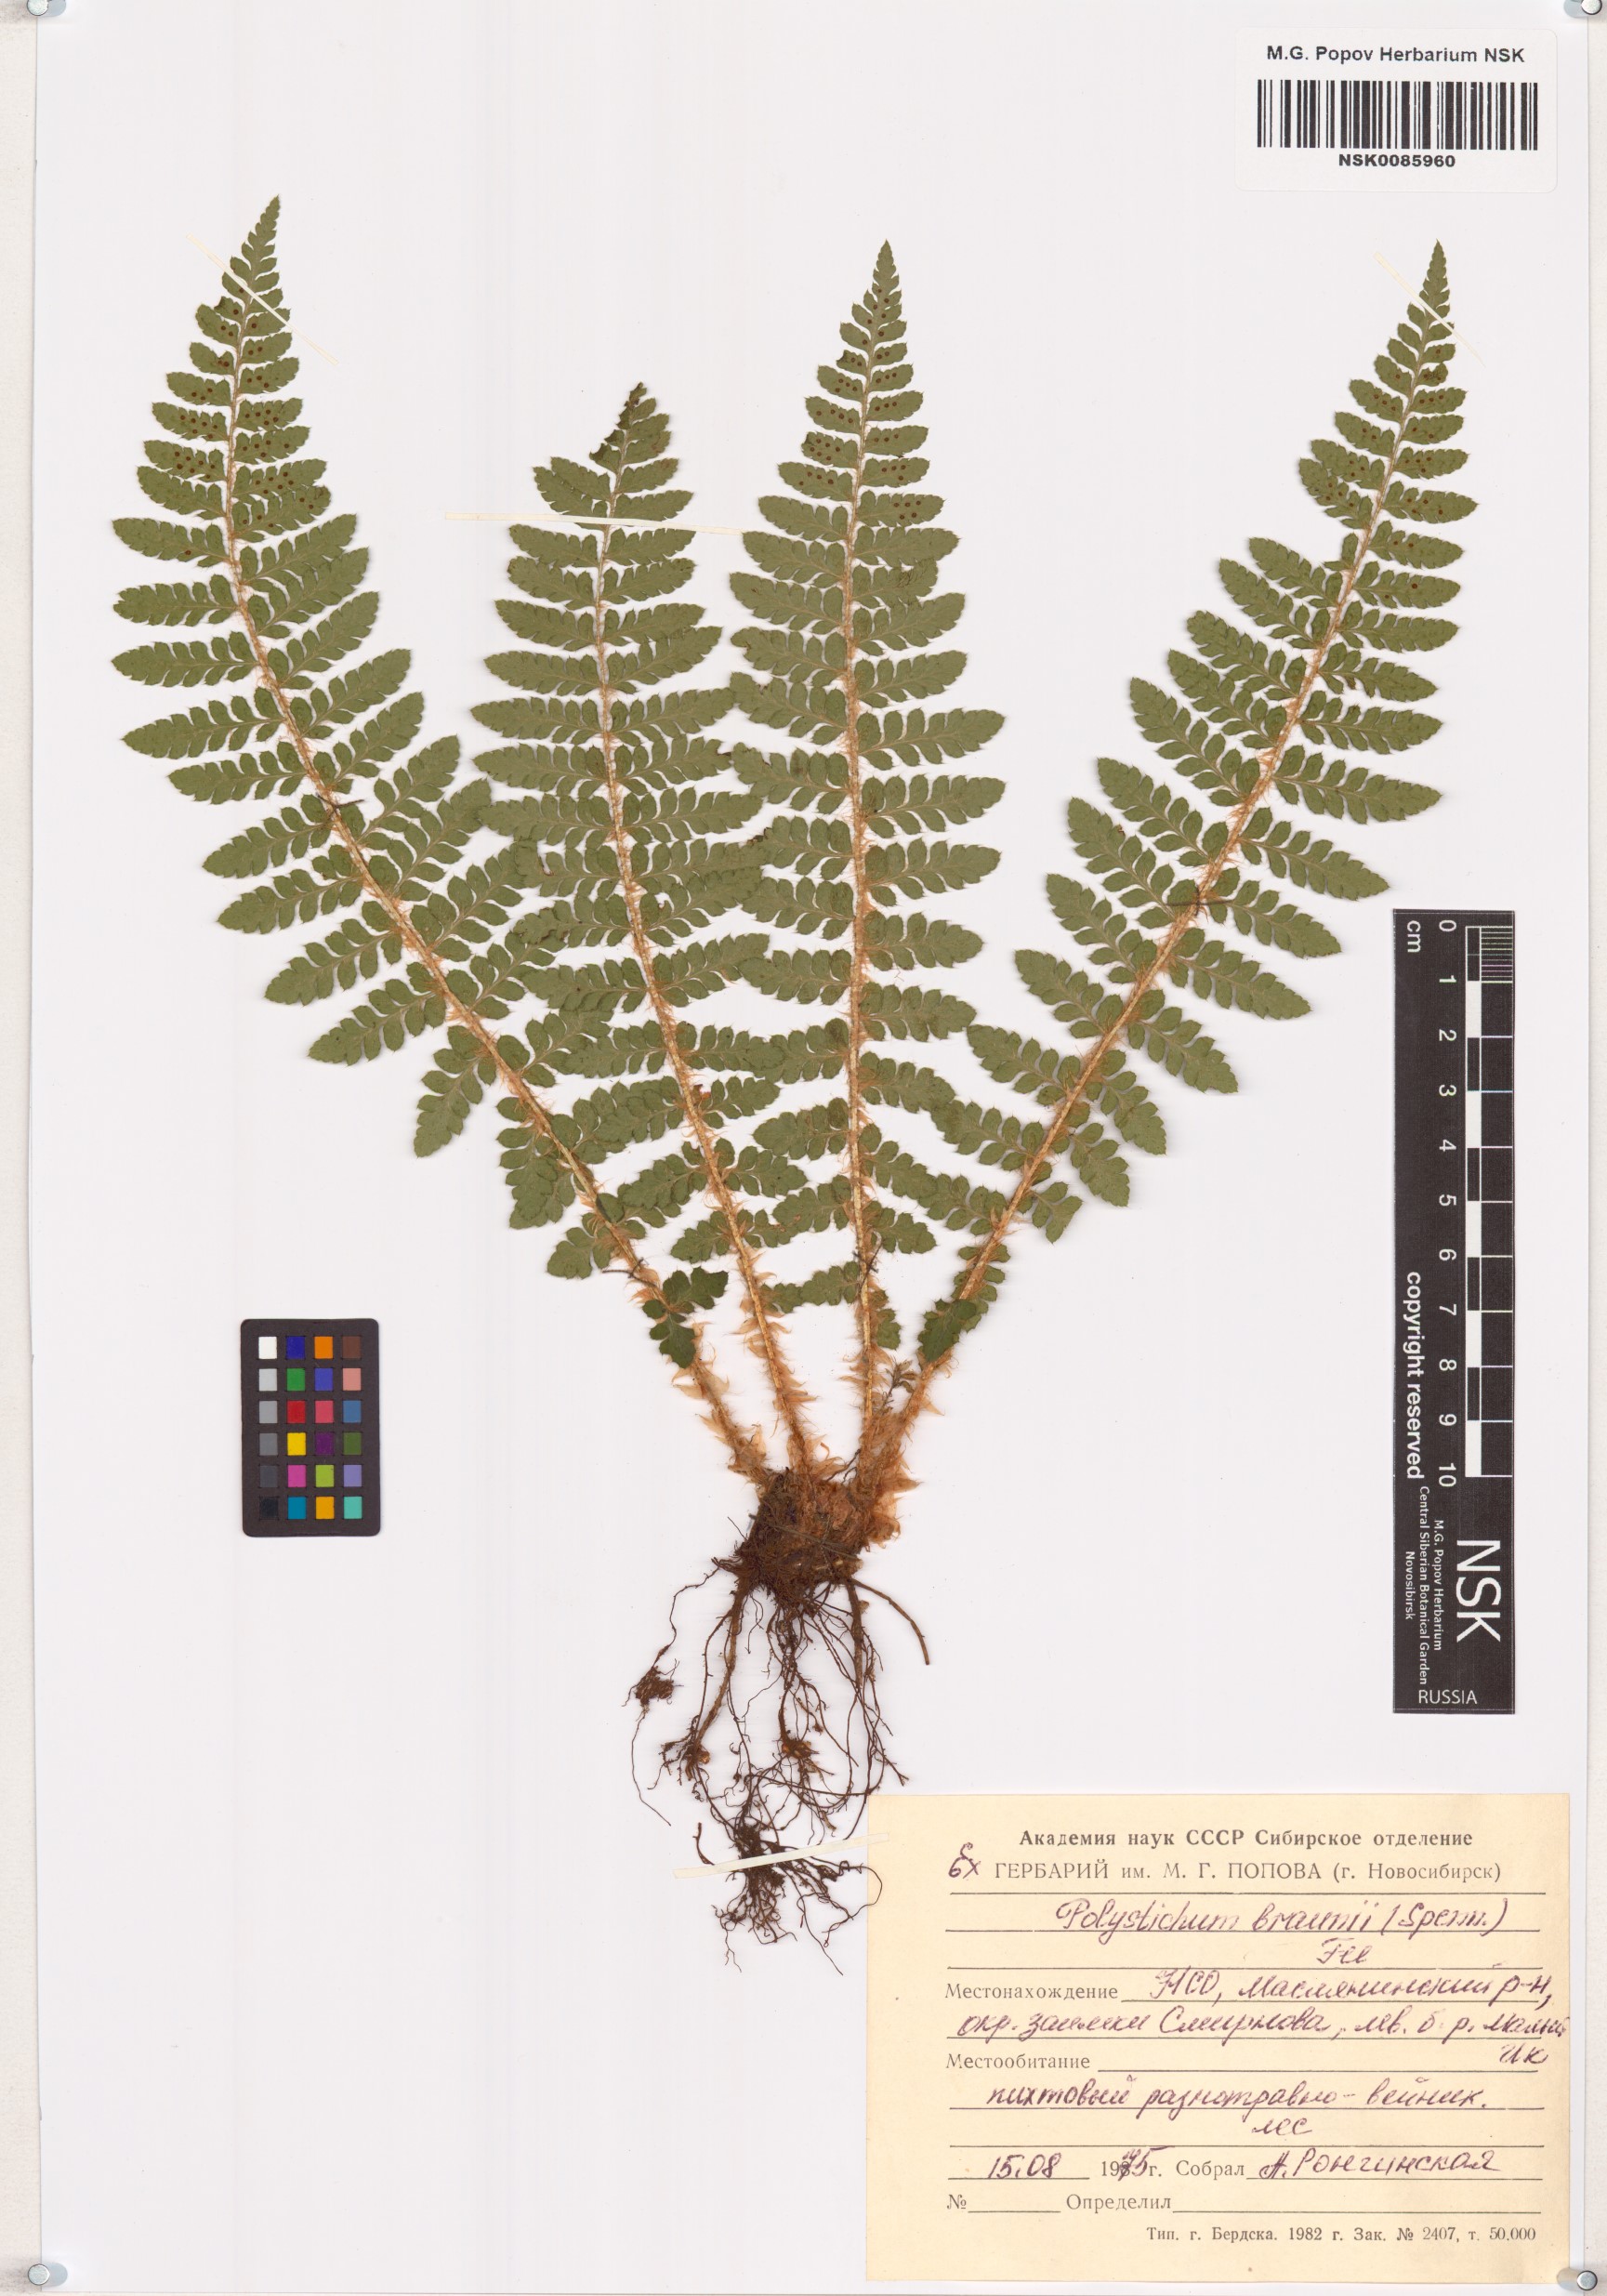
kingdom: Plantae
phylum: Tracheophyta
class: Polypodiopsida
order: Polypodiales
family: Dryopteridaceae
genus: Polystichum
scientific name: Polystichum braunii
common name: Braun's holly fern
